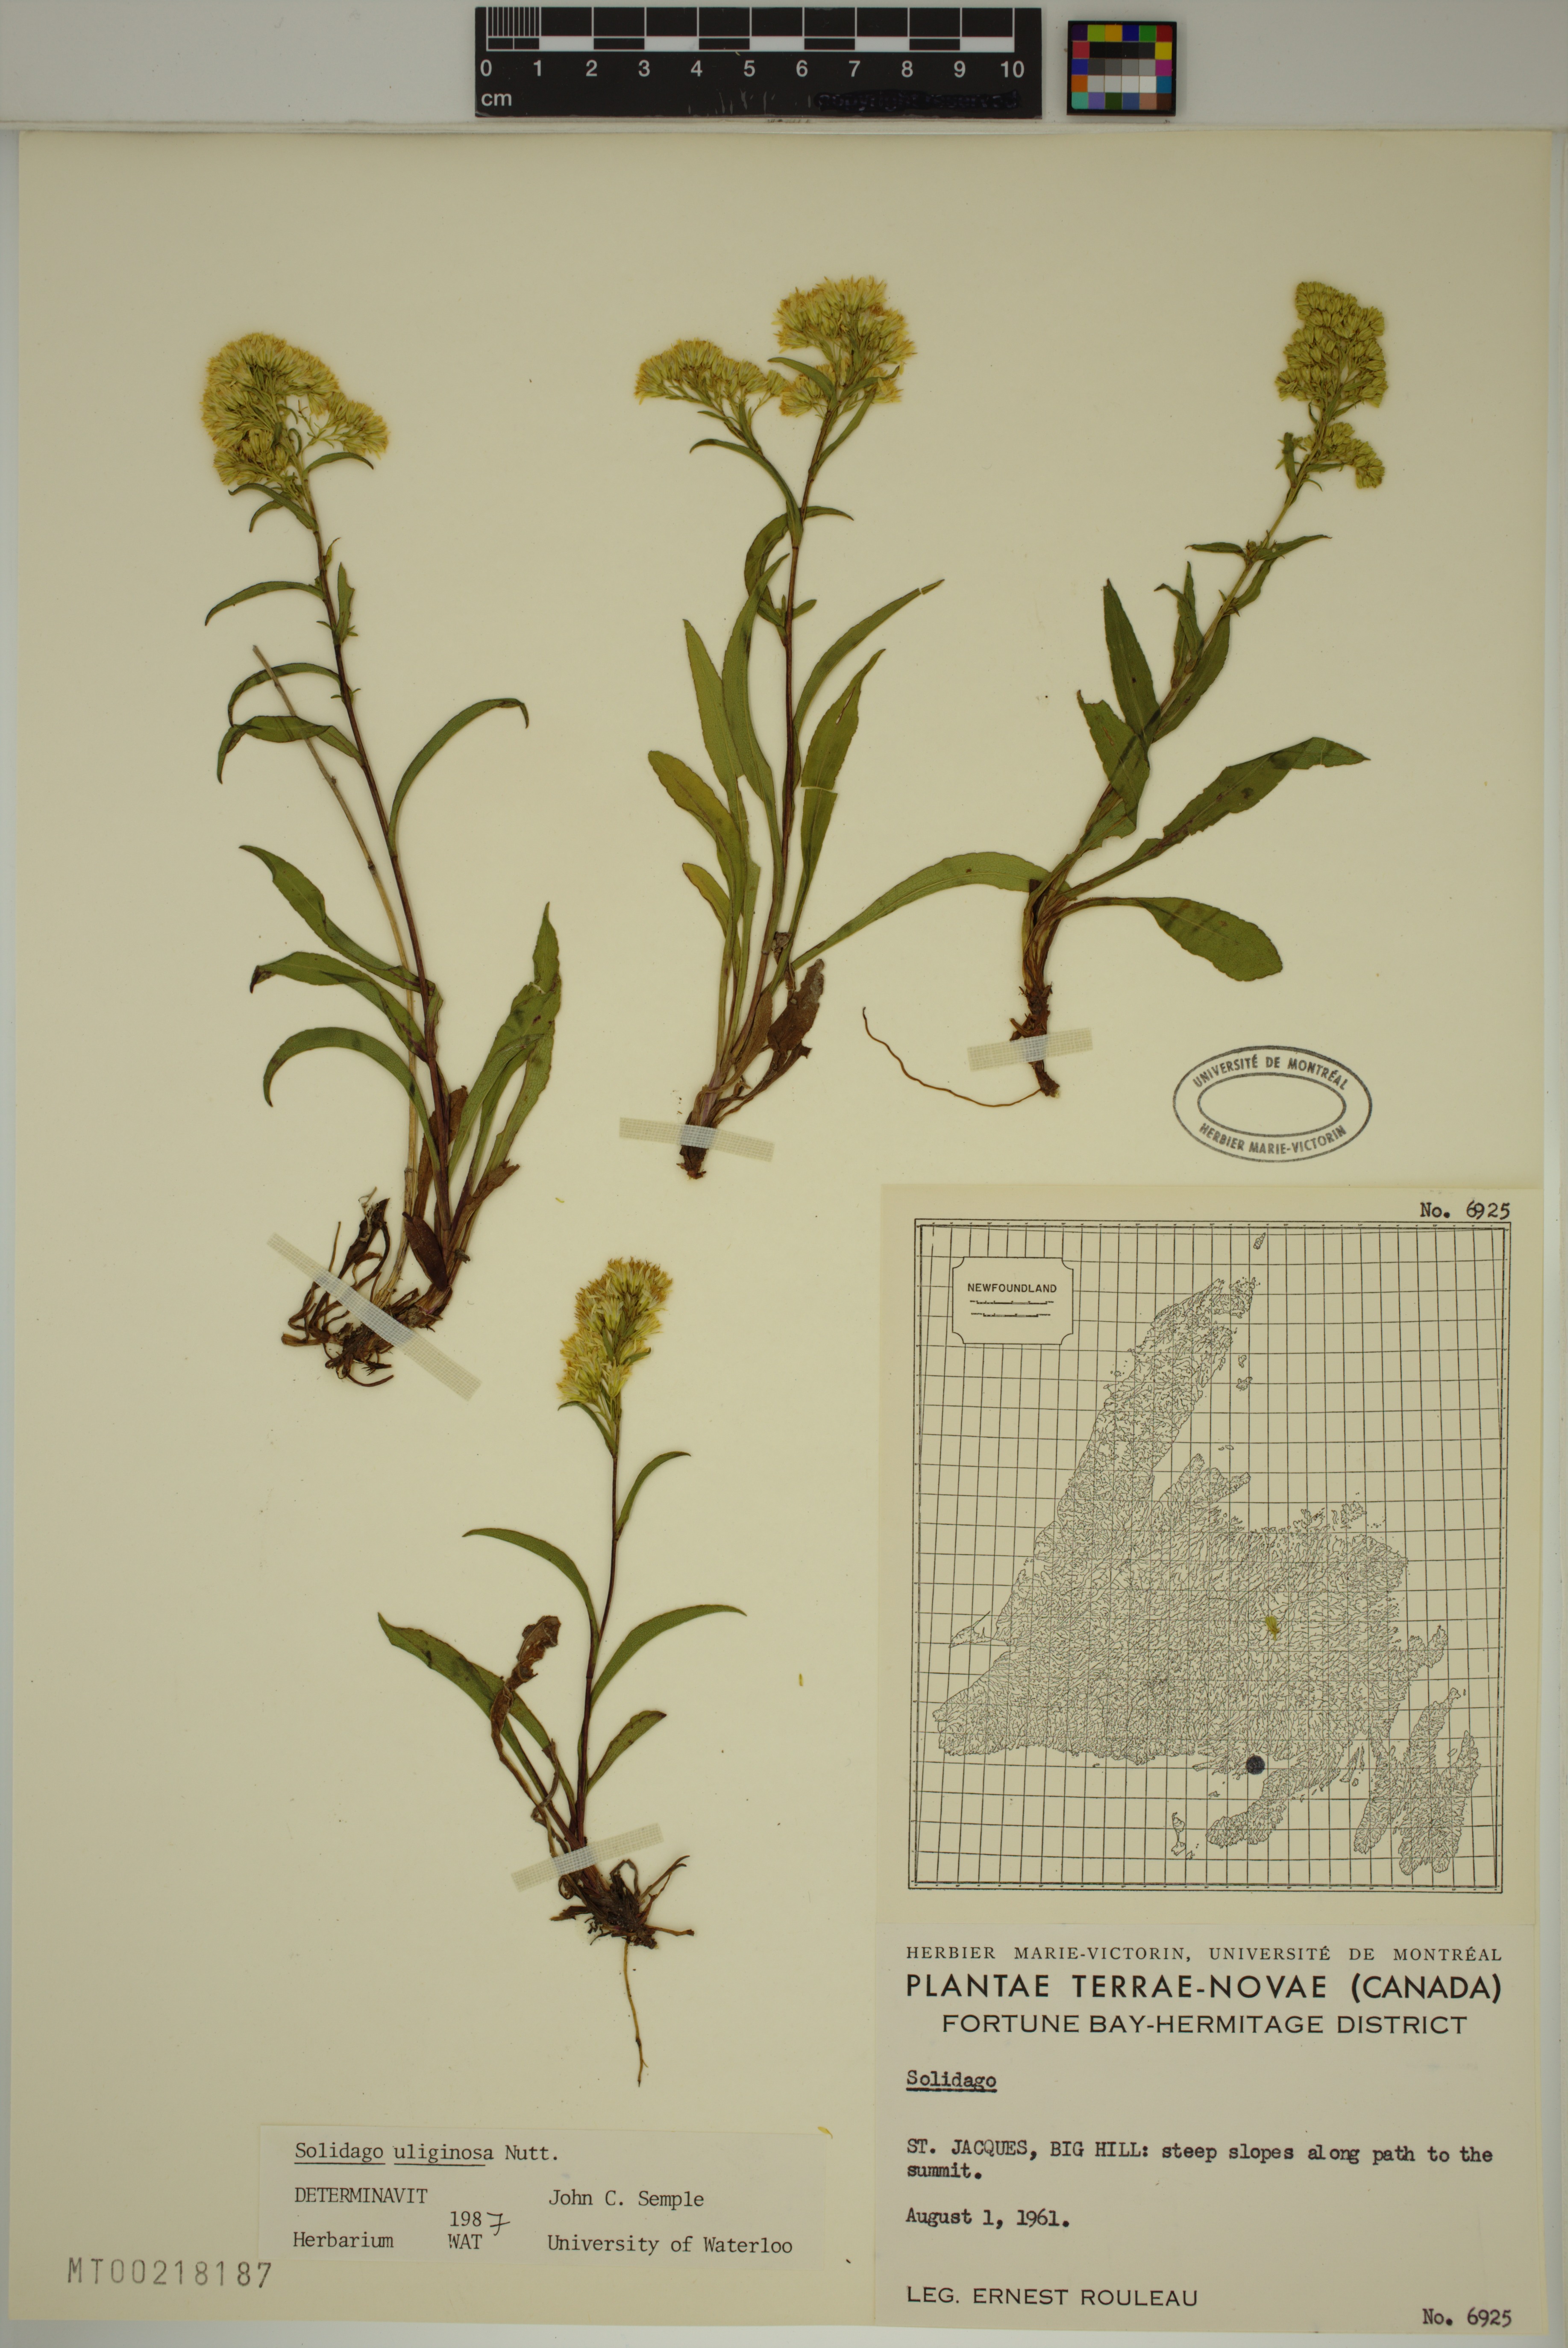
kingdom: Plantae
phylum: Tracheophyta
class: Magnoliopsida
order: Asterales
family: Asteraceae
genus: Solidago
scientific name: Solidago uliginosa
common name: Bog goldenrod
